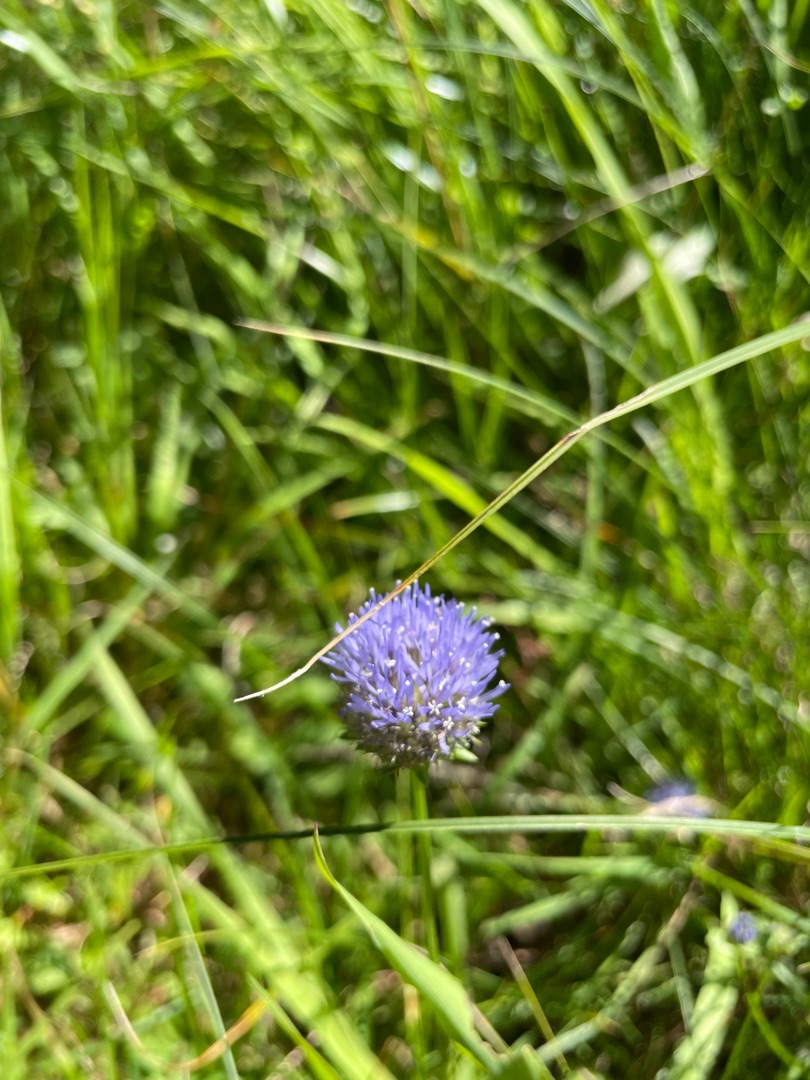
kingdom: Plantae
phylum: Tracheophyta
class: Magnoliopsida
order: Asterales
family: Campanulaceae
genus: Jasione
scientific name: Jasione montana
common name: Blåmunke
